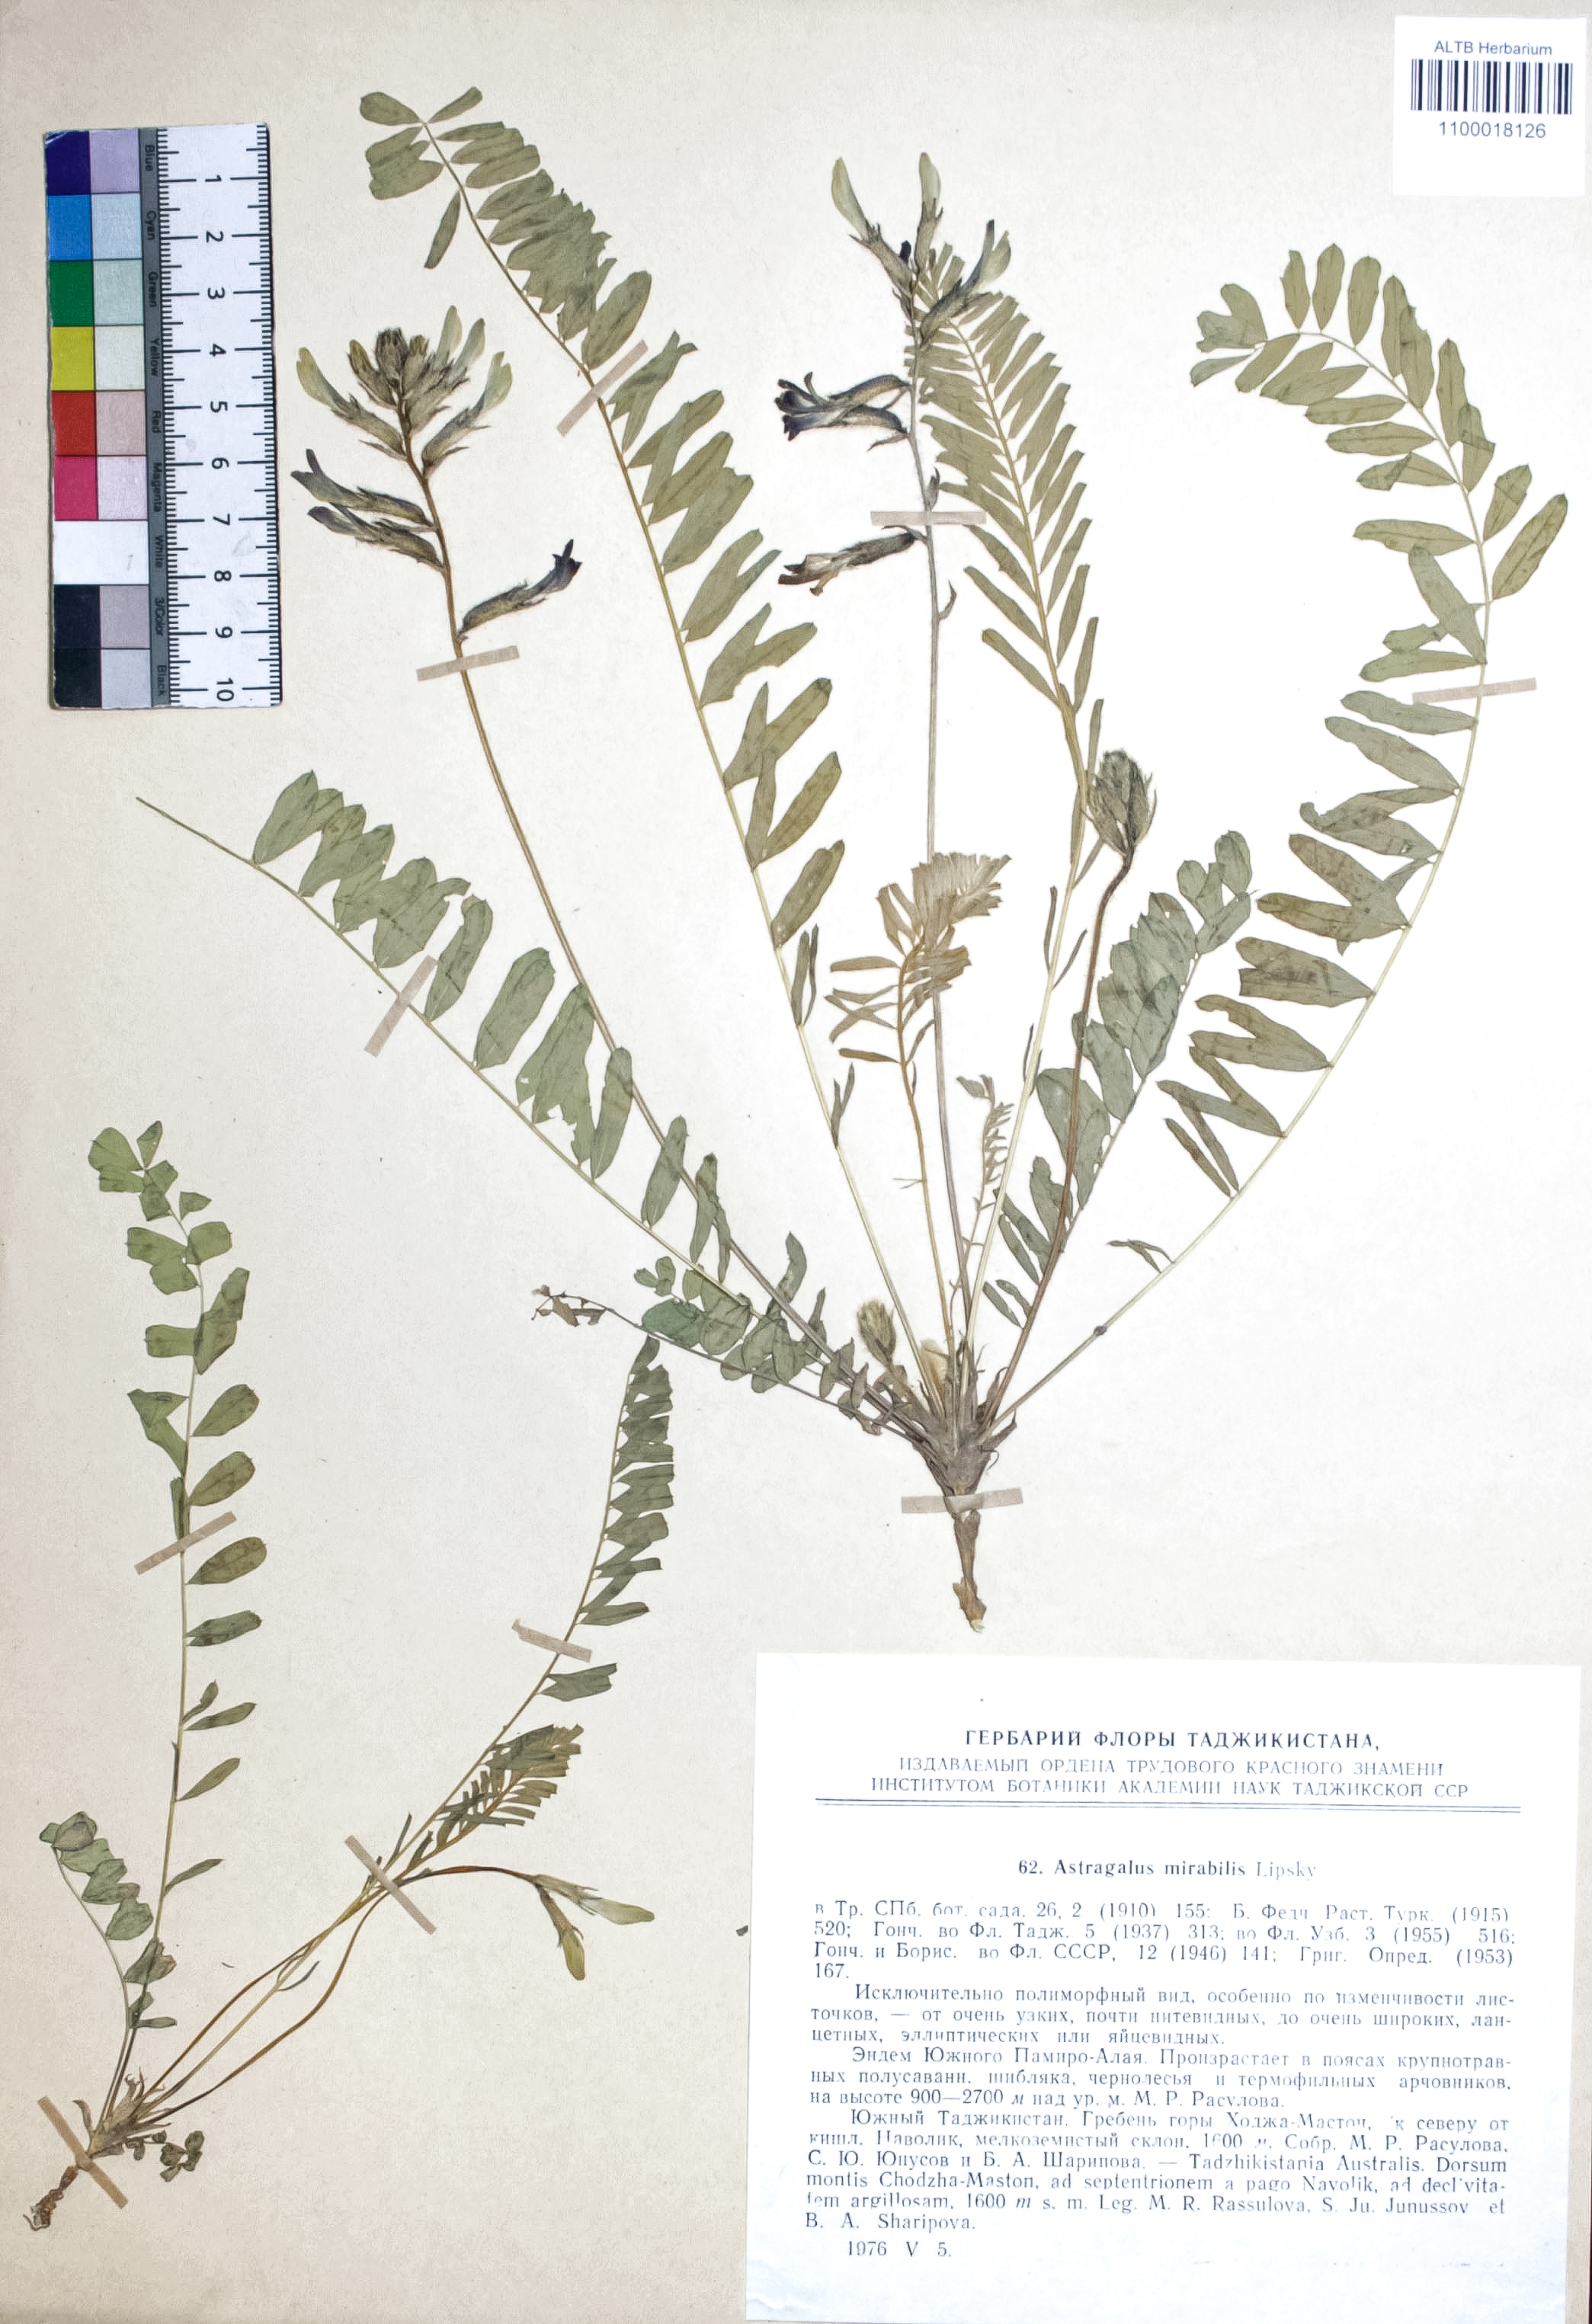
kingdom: Plantae
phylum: Tracheophyta
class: Magnoliopsida
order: Fabales
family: Fabaceae
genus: Astragalus
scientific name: Astragalus mirabilis
